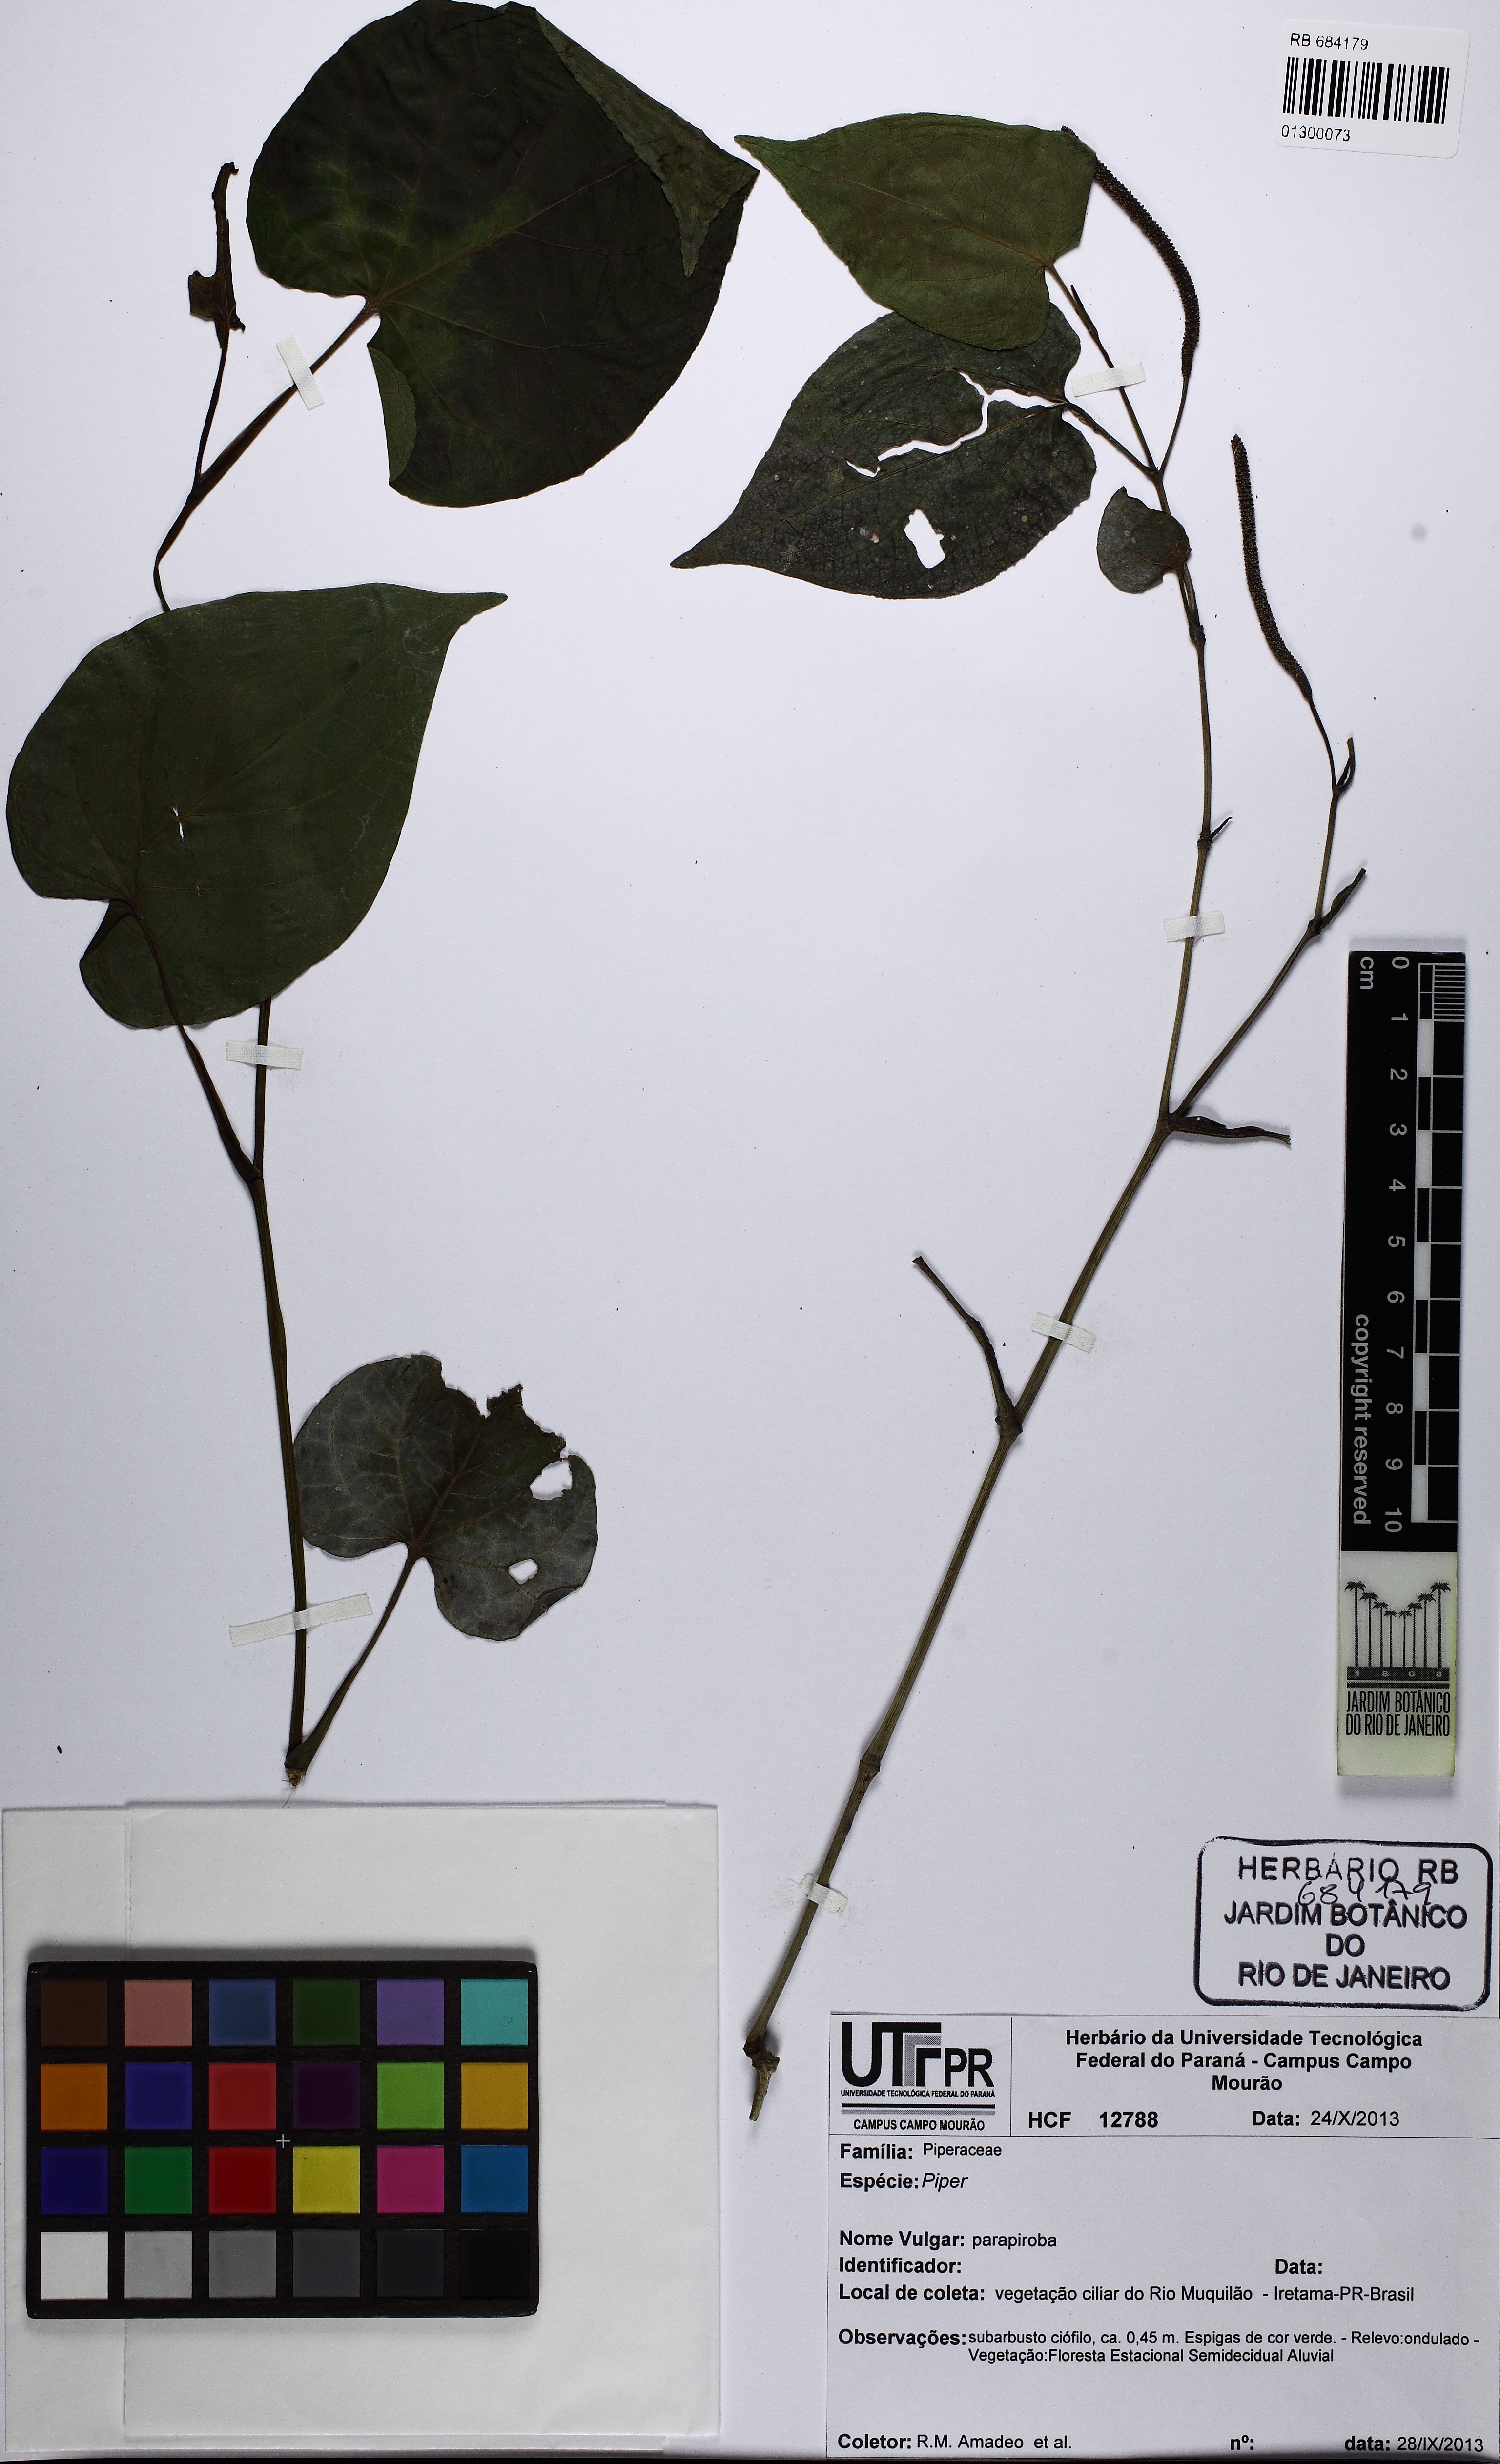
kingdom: Plantae
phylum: Tracheophyta
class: Magnoliopsida
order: Piperales
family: Piperaceae
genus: Piper
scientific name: Piper mikanianum
